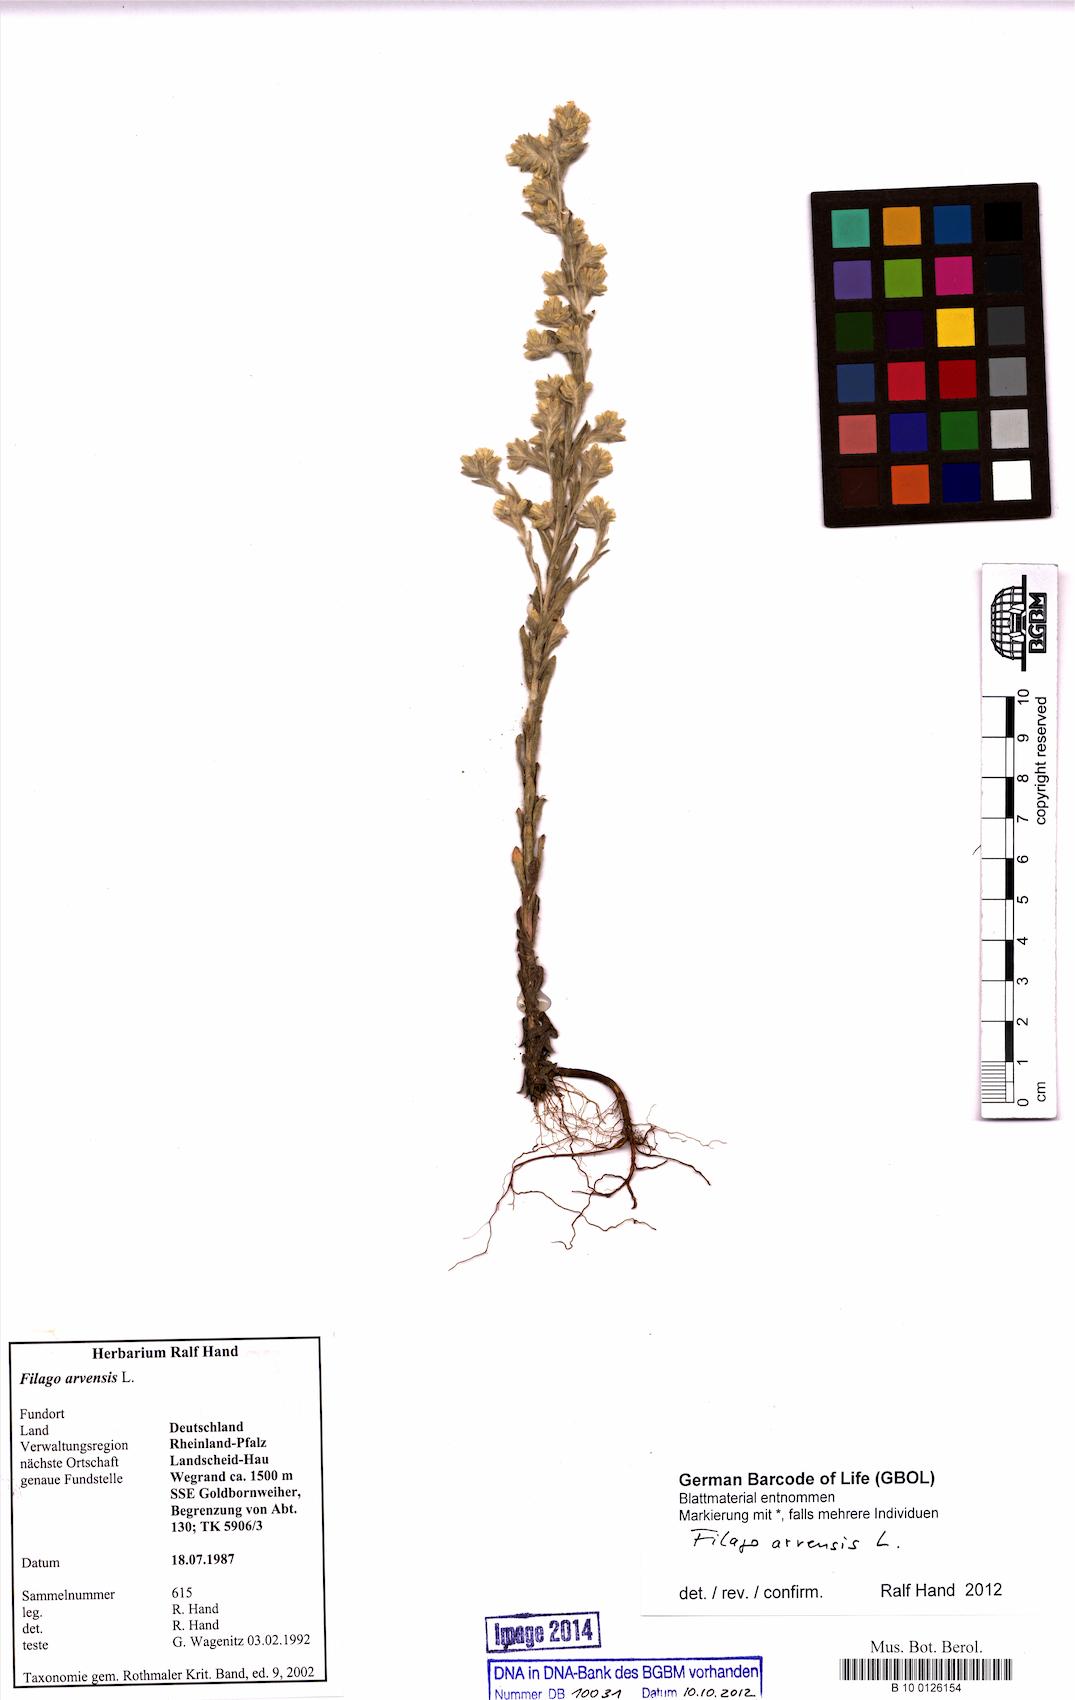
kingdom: Plantae
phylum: Tracheophyta
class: Magnoliopsida
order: Asterales
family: Asteraceae
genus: Filago
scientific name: Filago arvensis
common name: Field cudweed
